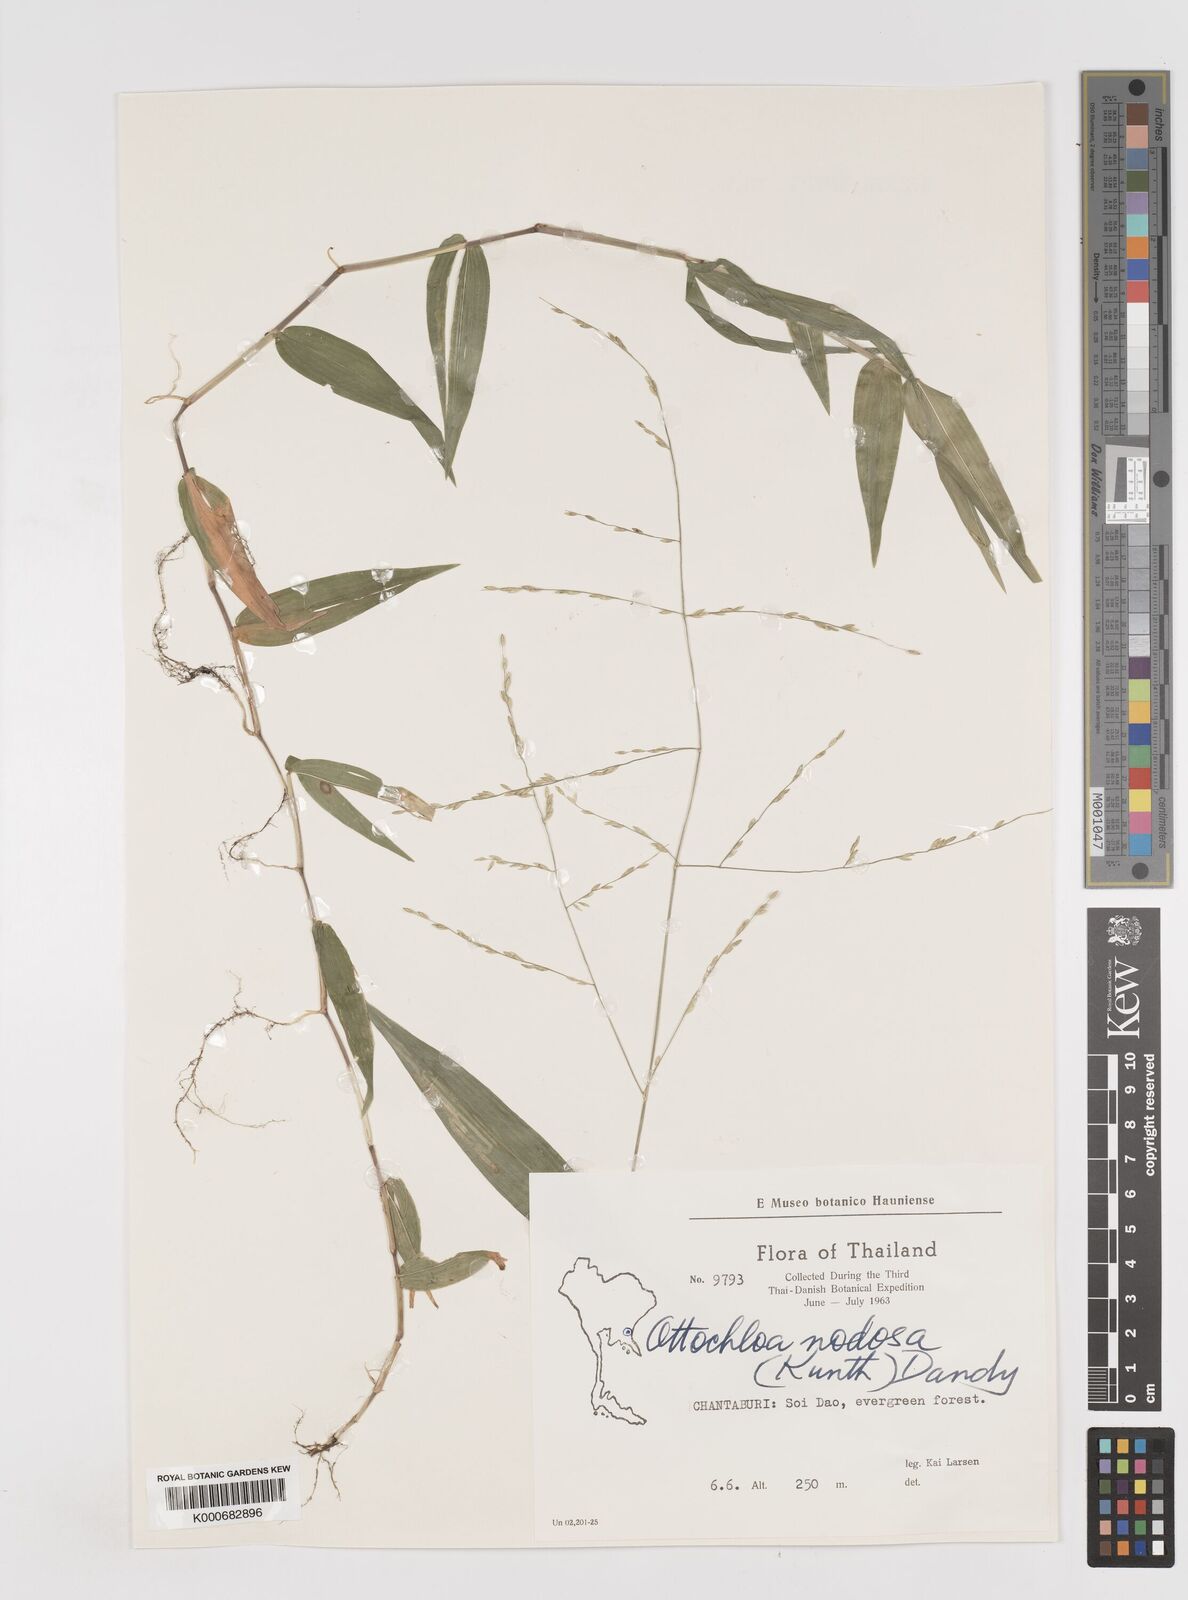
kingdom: Plantae
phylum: Tracheophyta
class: Liliopsida
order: Poales
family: Poaceae
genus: Ottochloa
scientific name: Ottochloa nodosa
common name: Slender-panic grass
